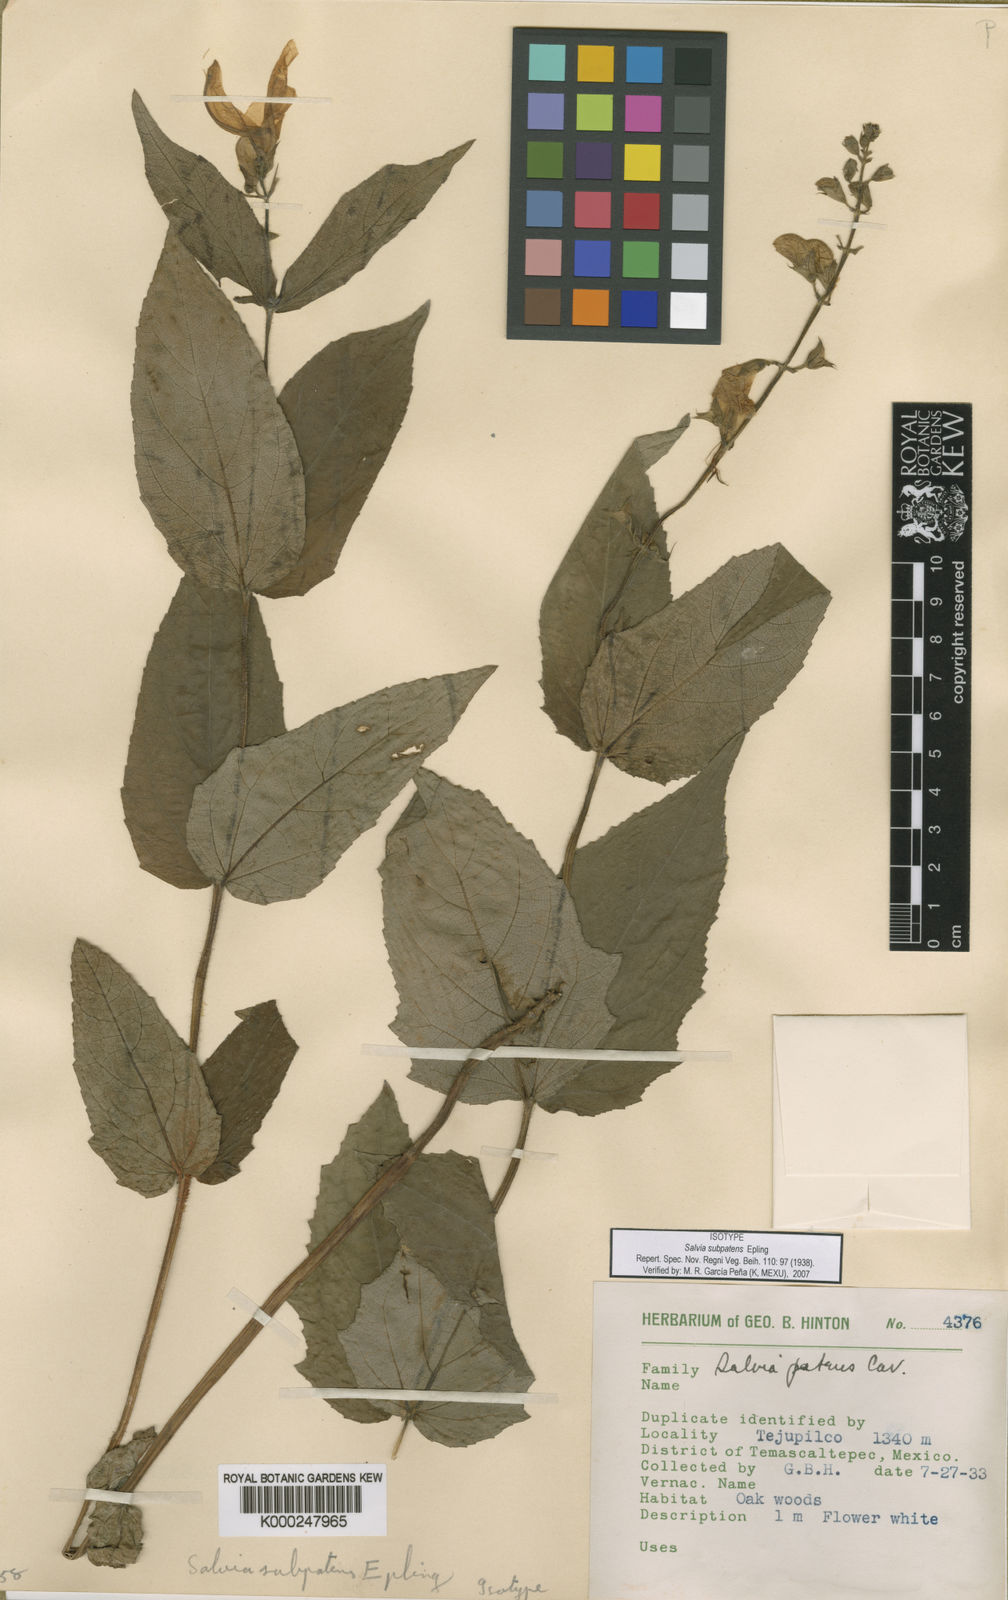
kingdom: Plantae
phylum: Tracheophyta
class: Magnoliopsida
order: Lamiales
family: Lamiaceae
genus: Salvia
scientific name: Salvia subpatens
